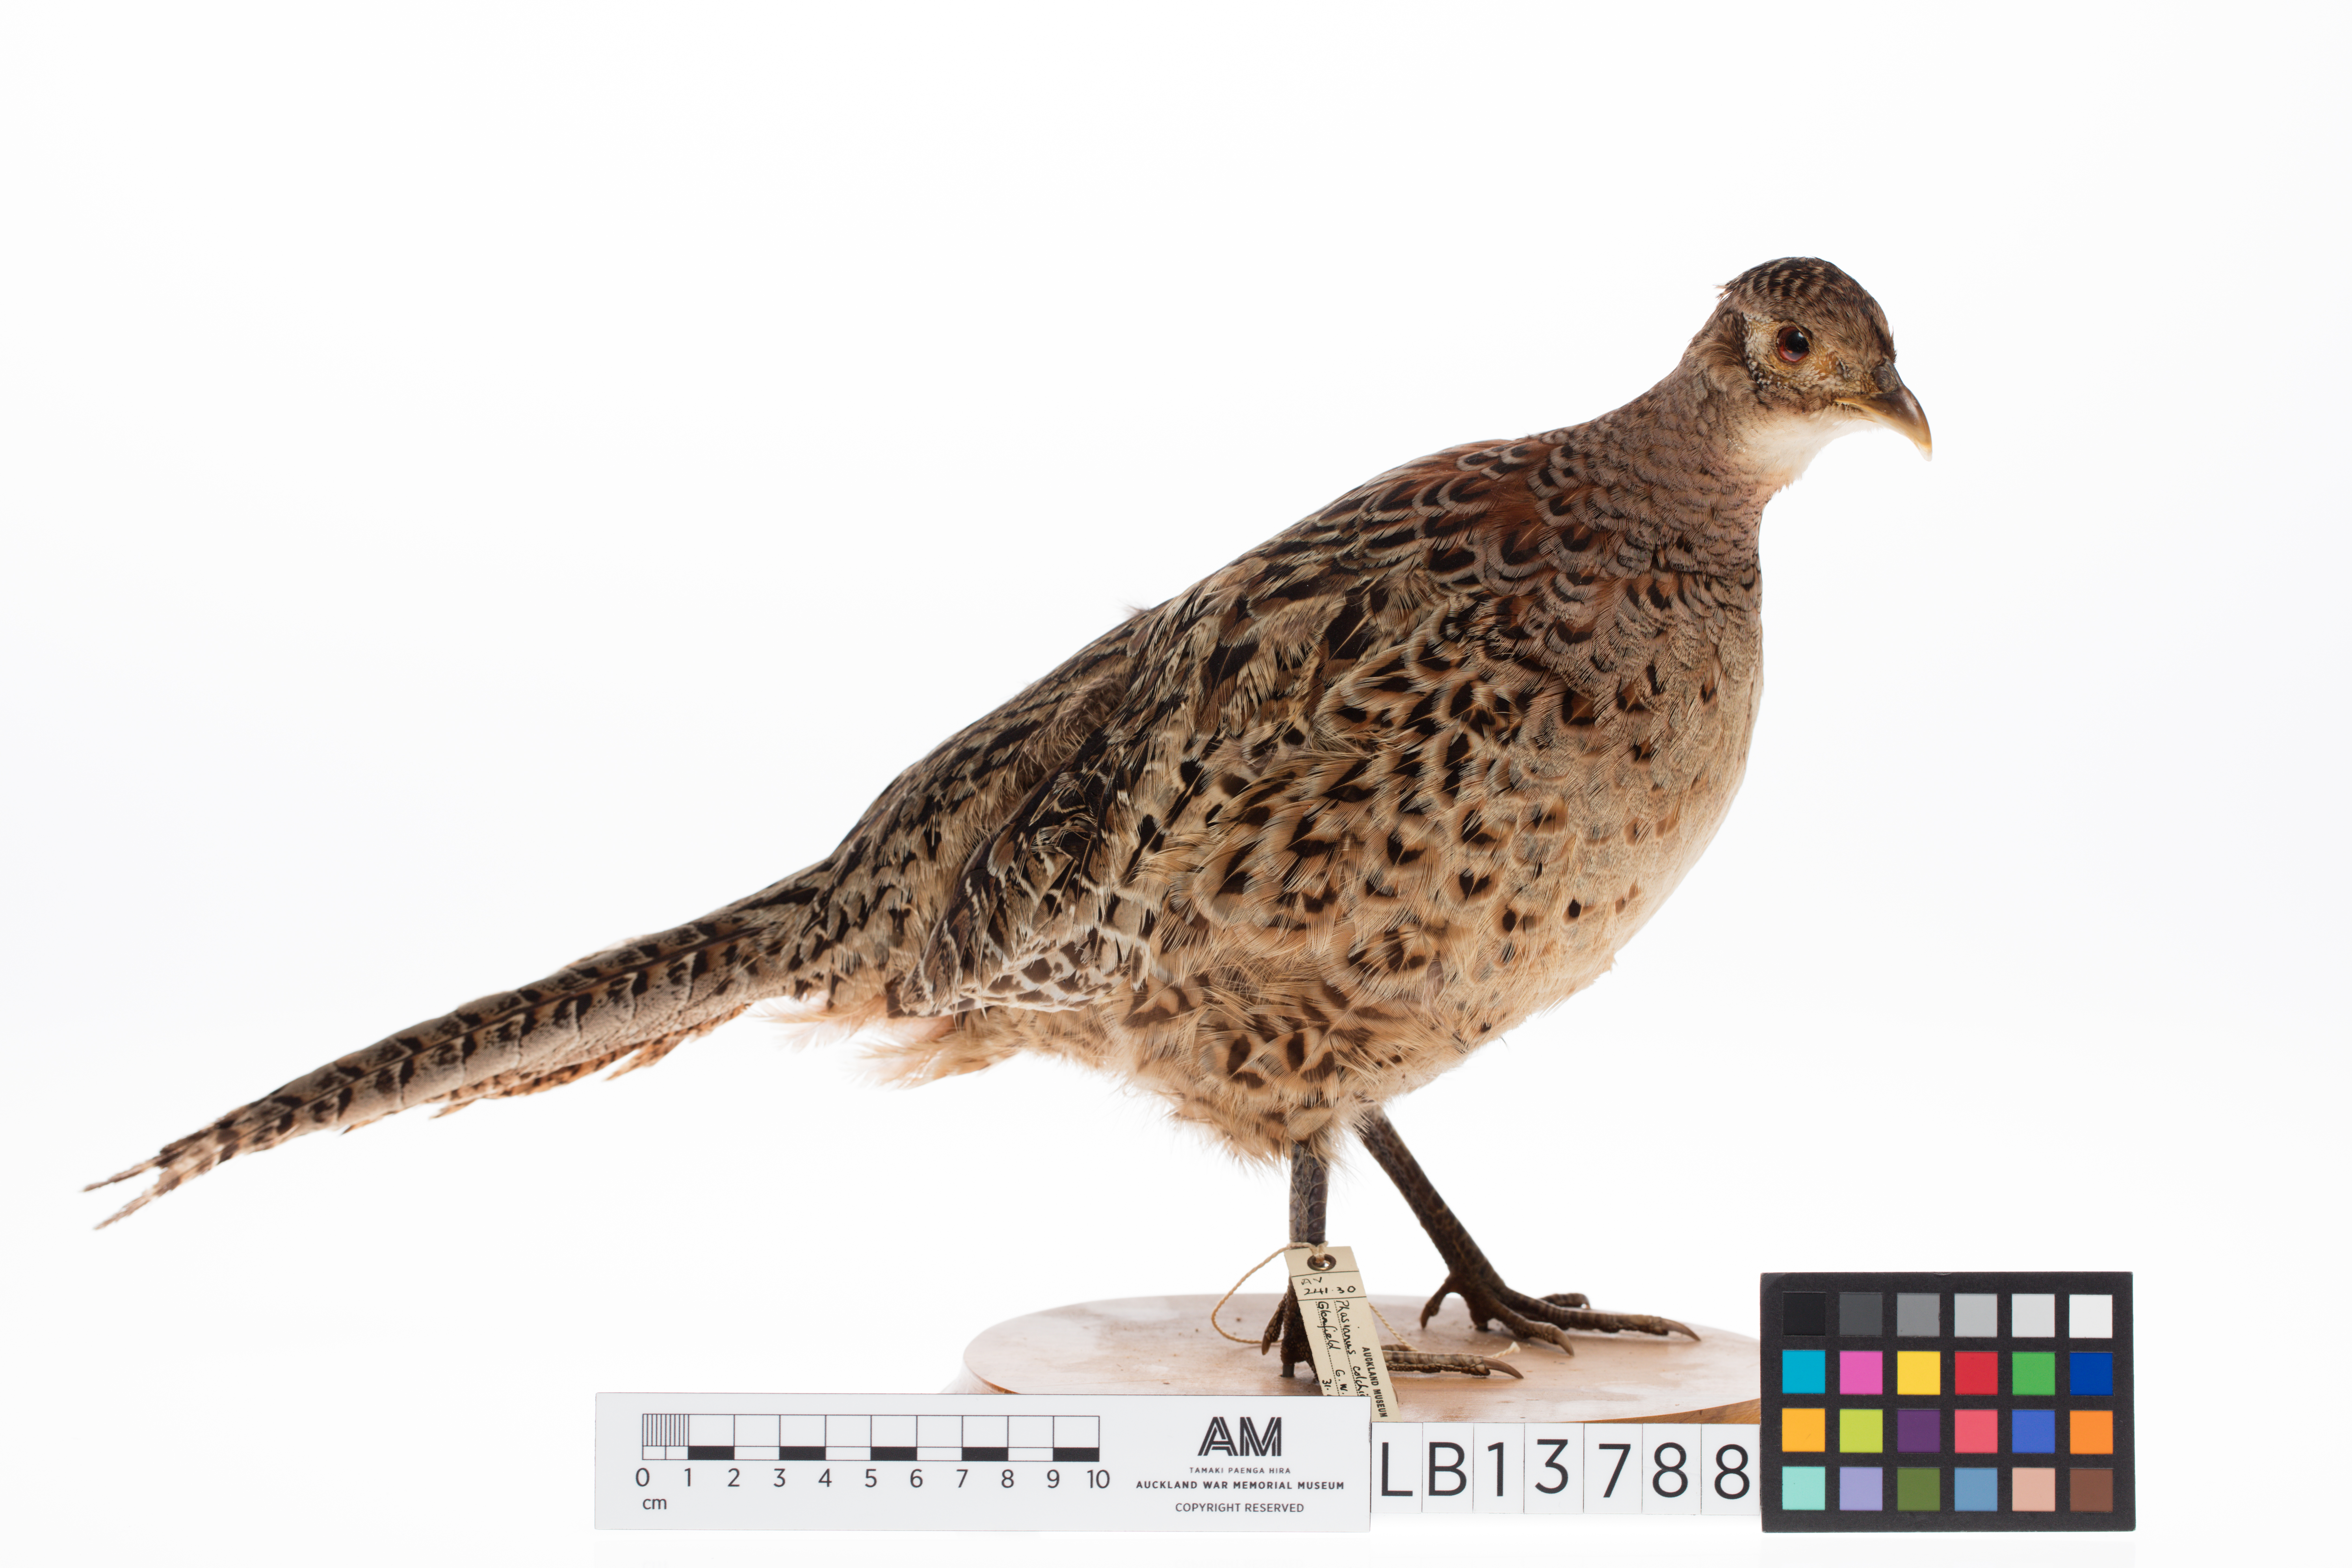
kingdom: Animalia
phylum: Chordata
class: Aves
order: Galliformes
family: Phasianidae
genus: Phasianus
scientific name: Phasianus colchicus
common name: Common pheasant
